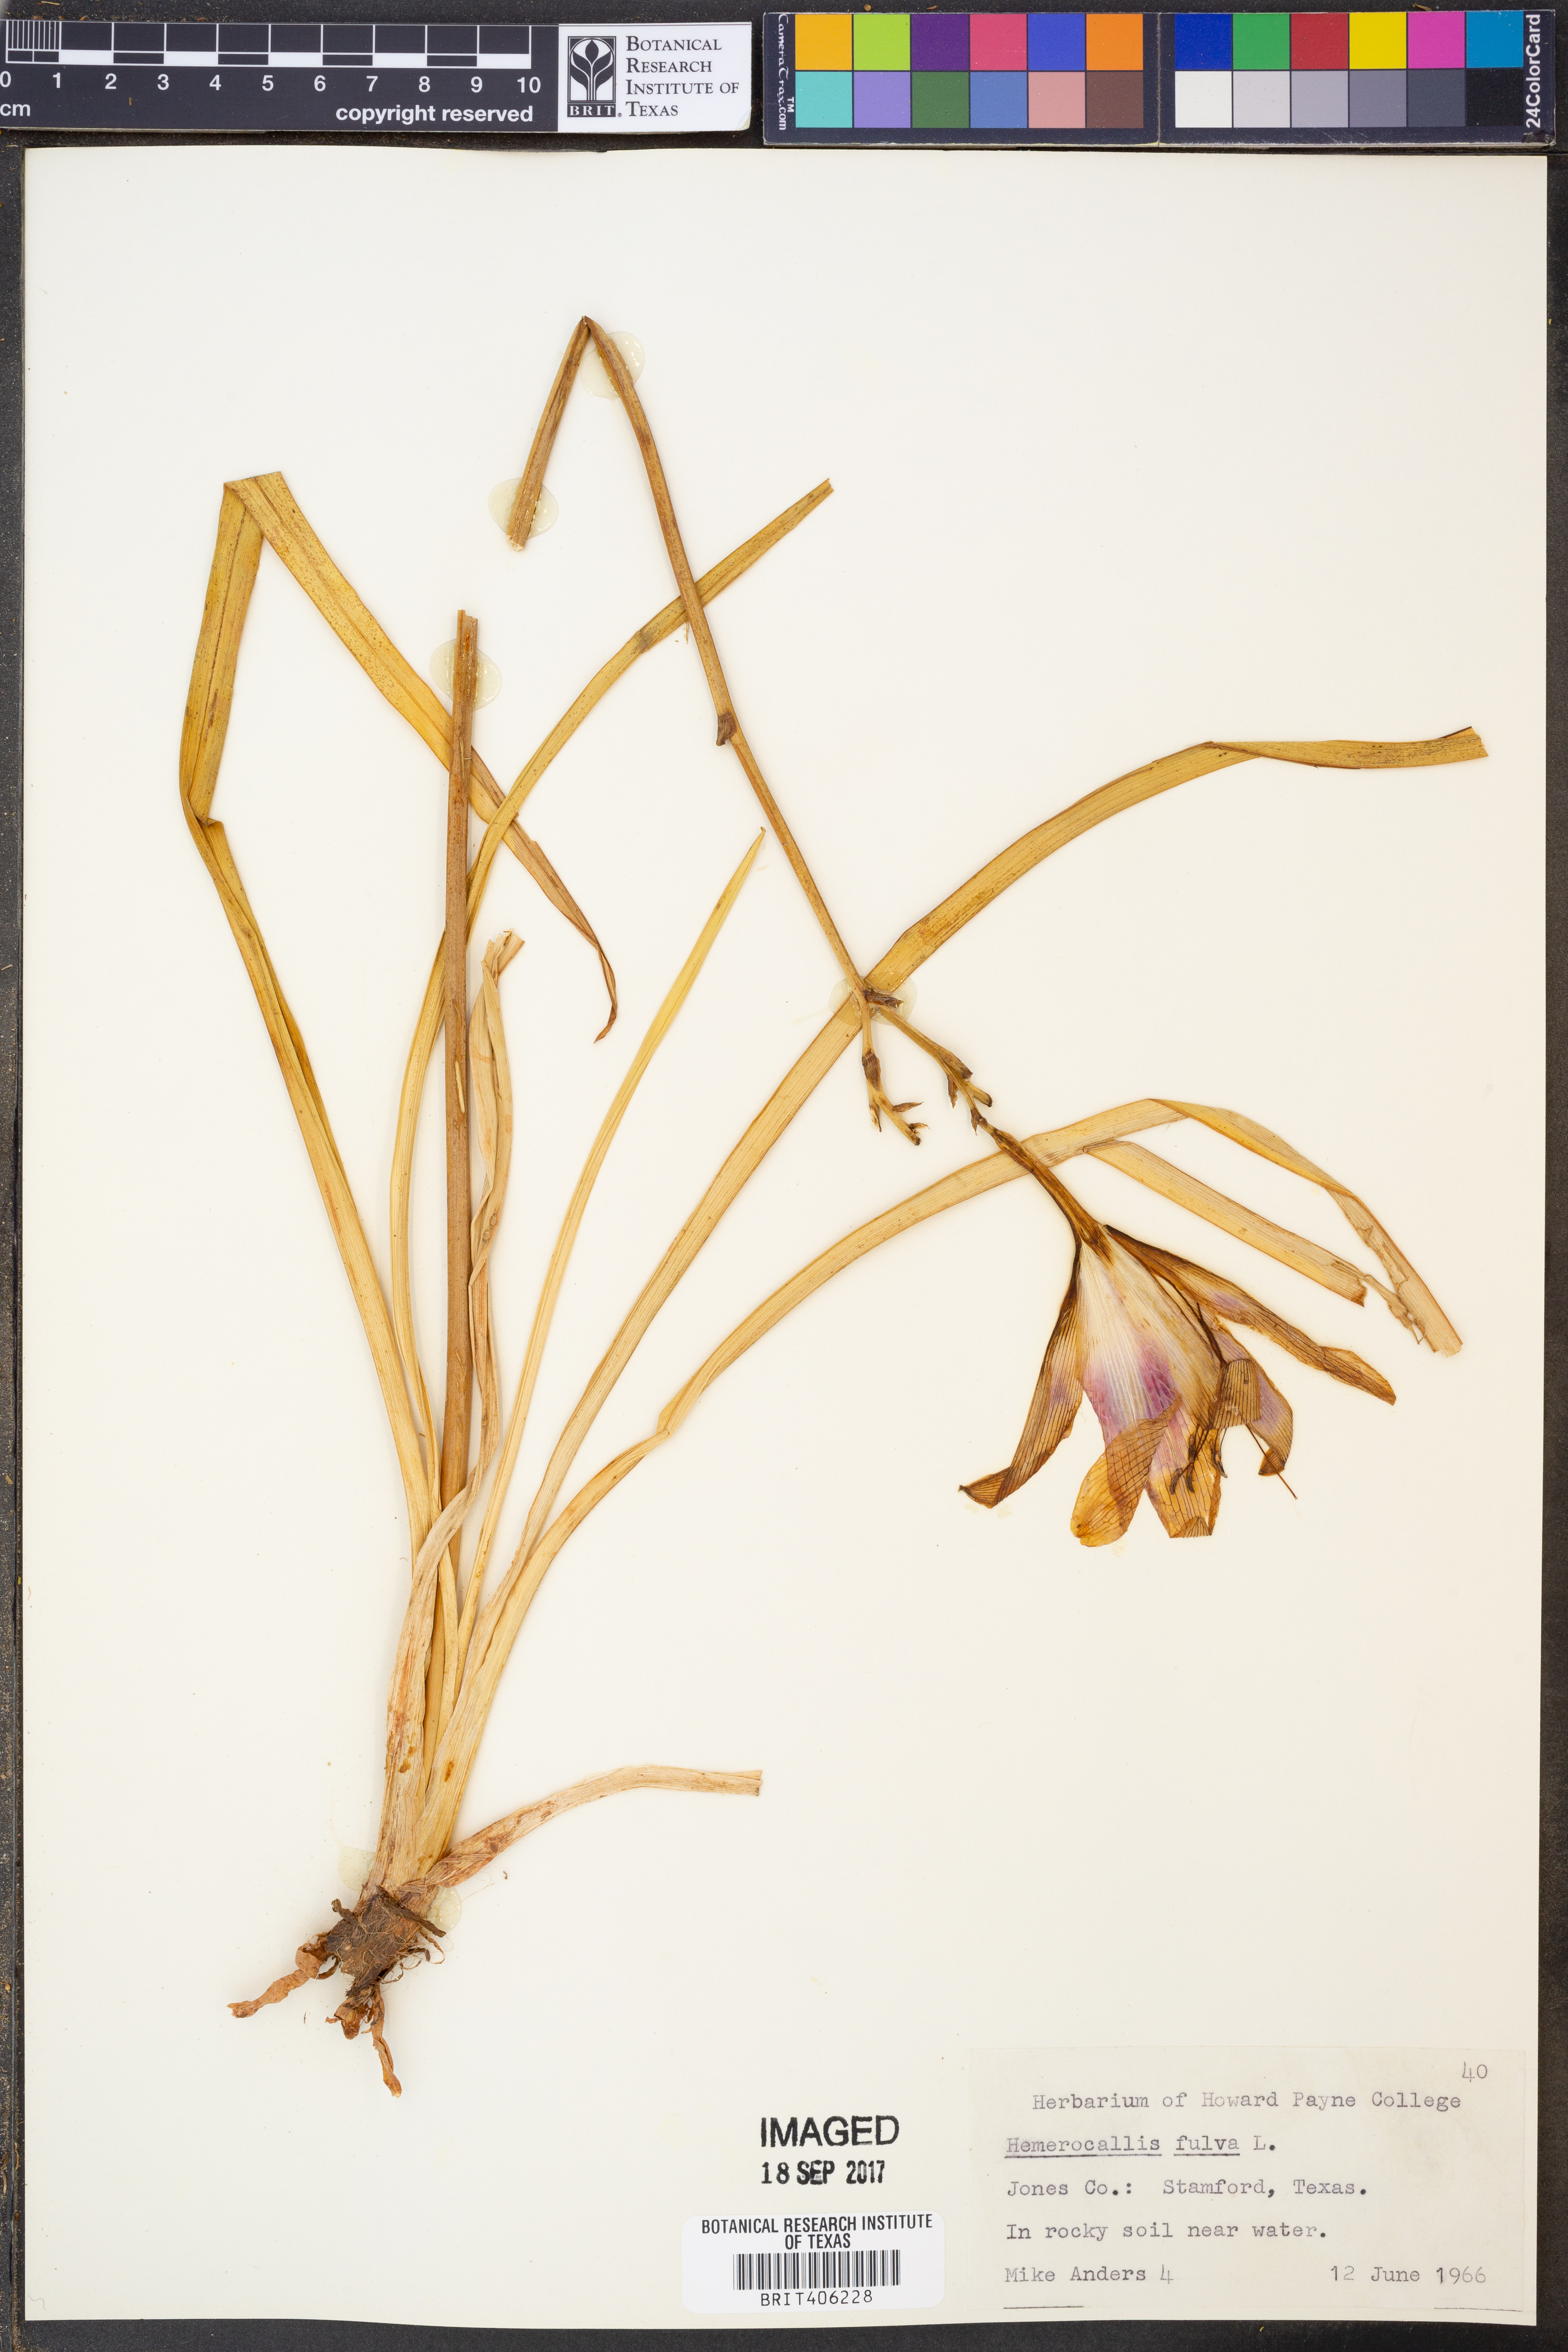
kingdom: Plantae
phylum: Tracheophyta
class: Liliopsida
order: Asparagales
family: Asphodelaceae
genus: Hemerocallis
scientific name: Hemerocallis fulva
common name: Orange day-lily
